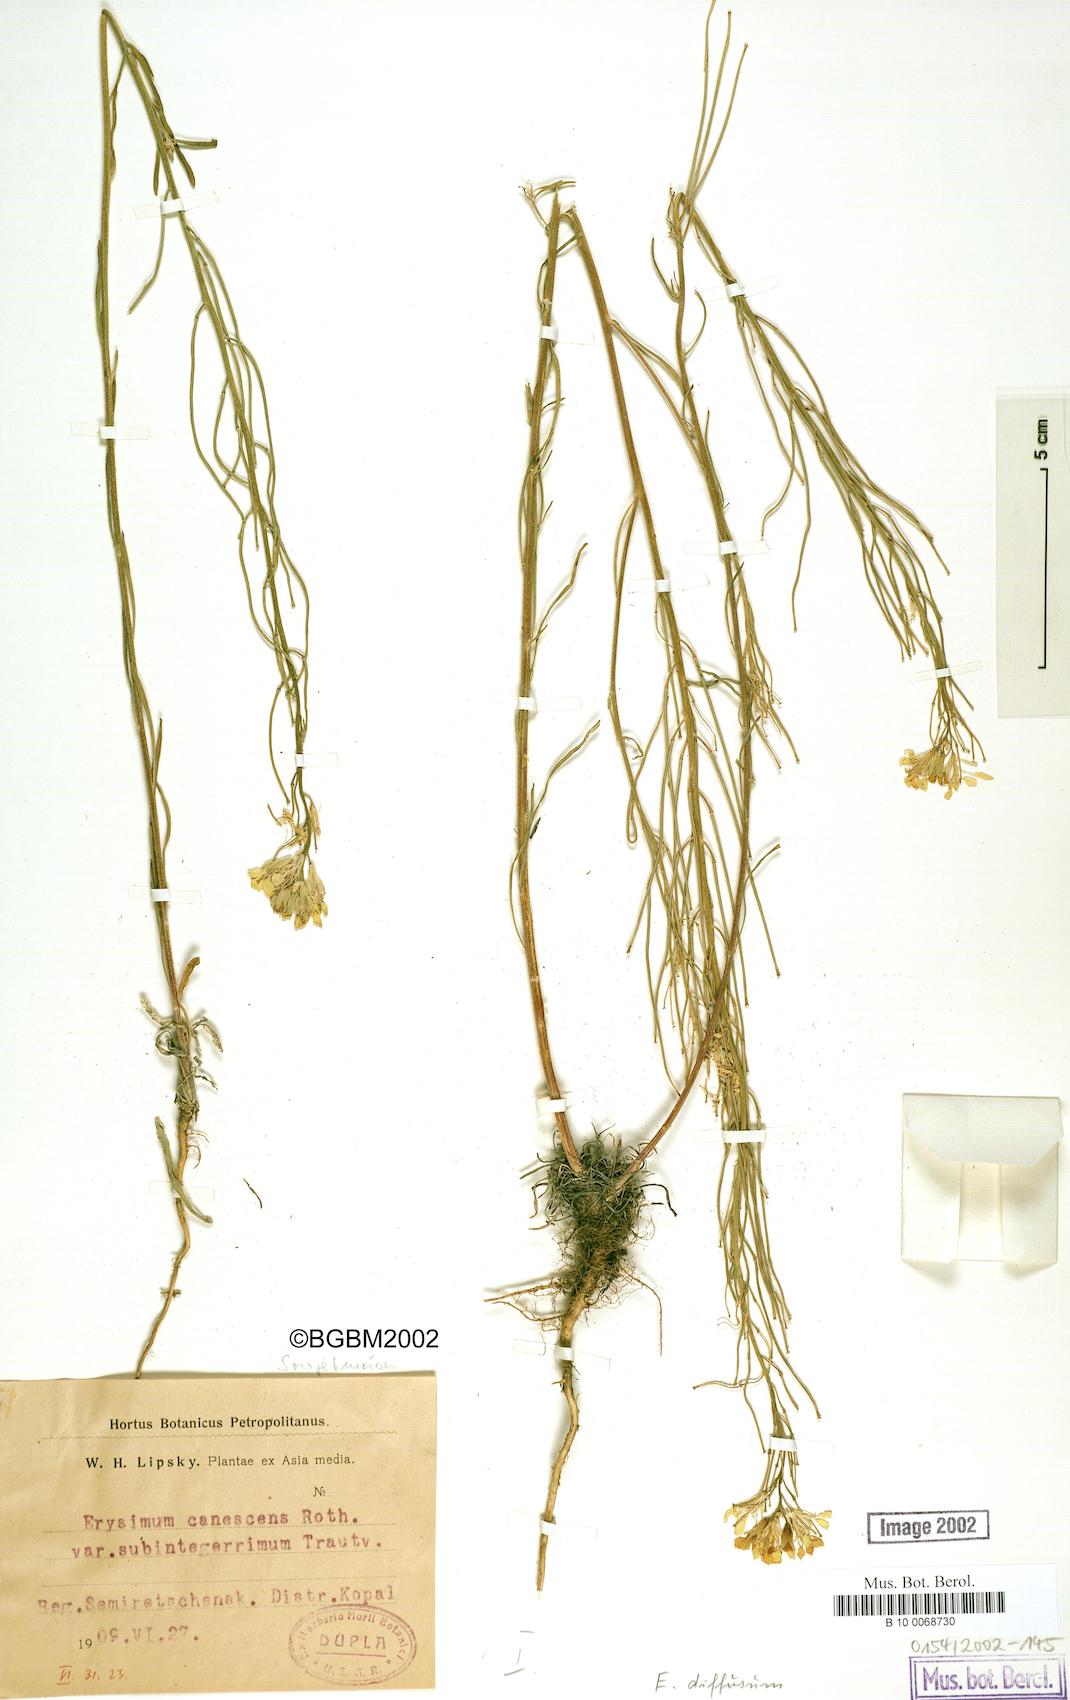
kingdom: Plantae
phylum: Tracheophyta
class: Magnoliopsida
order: Brassicales
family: Brassicaceae
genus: Erysimum
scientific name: Erysimum diffusum
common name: Diffuse wallflower
